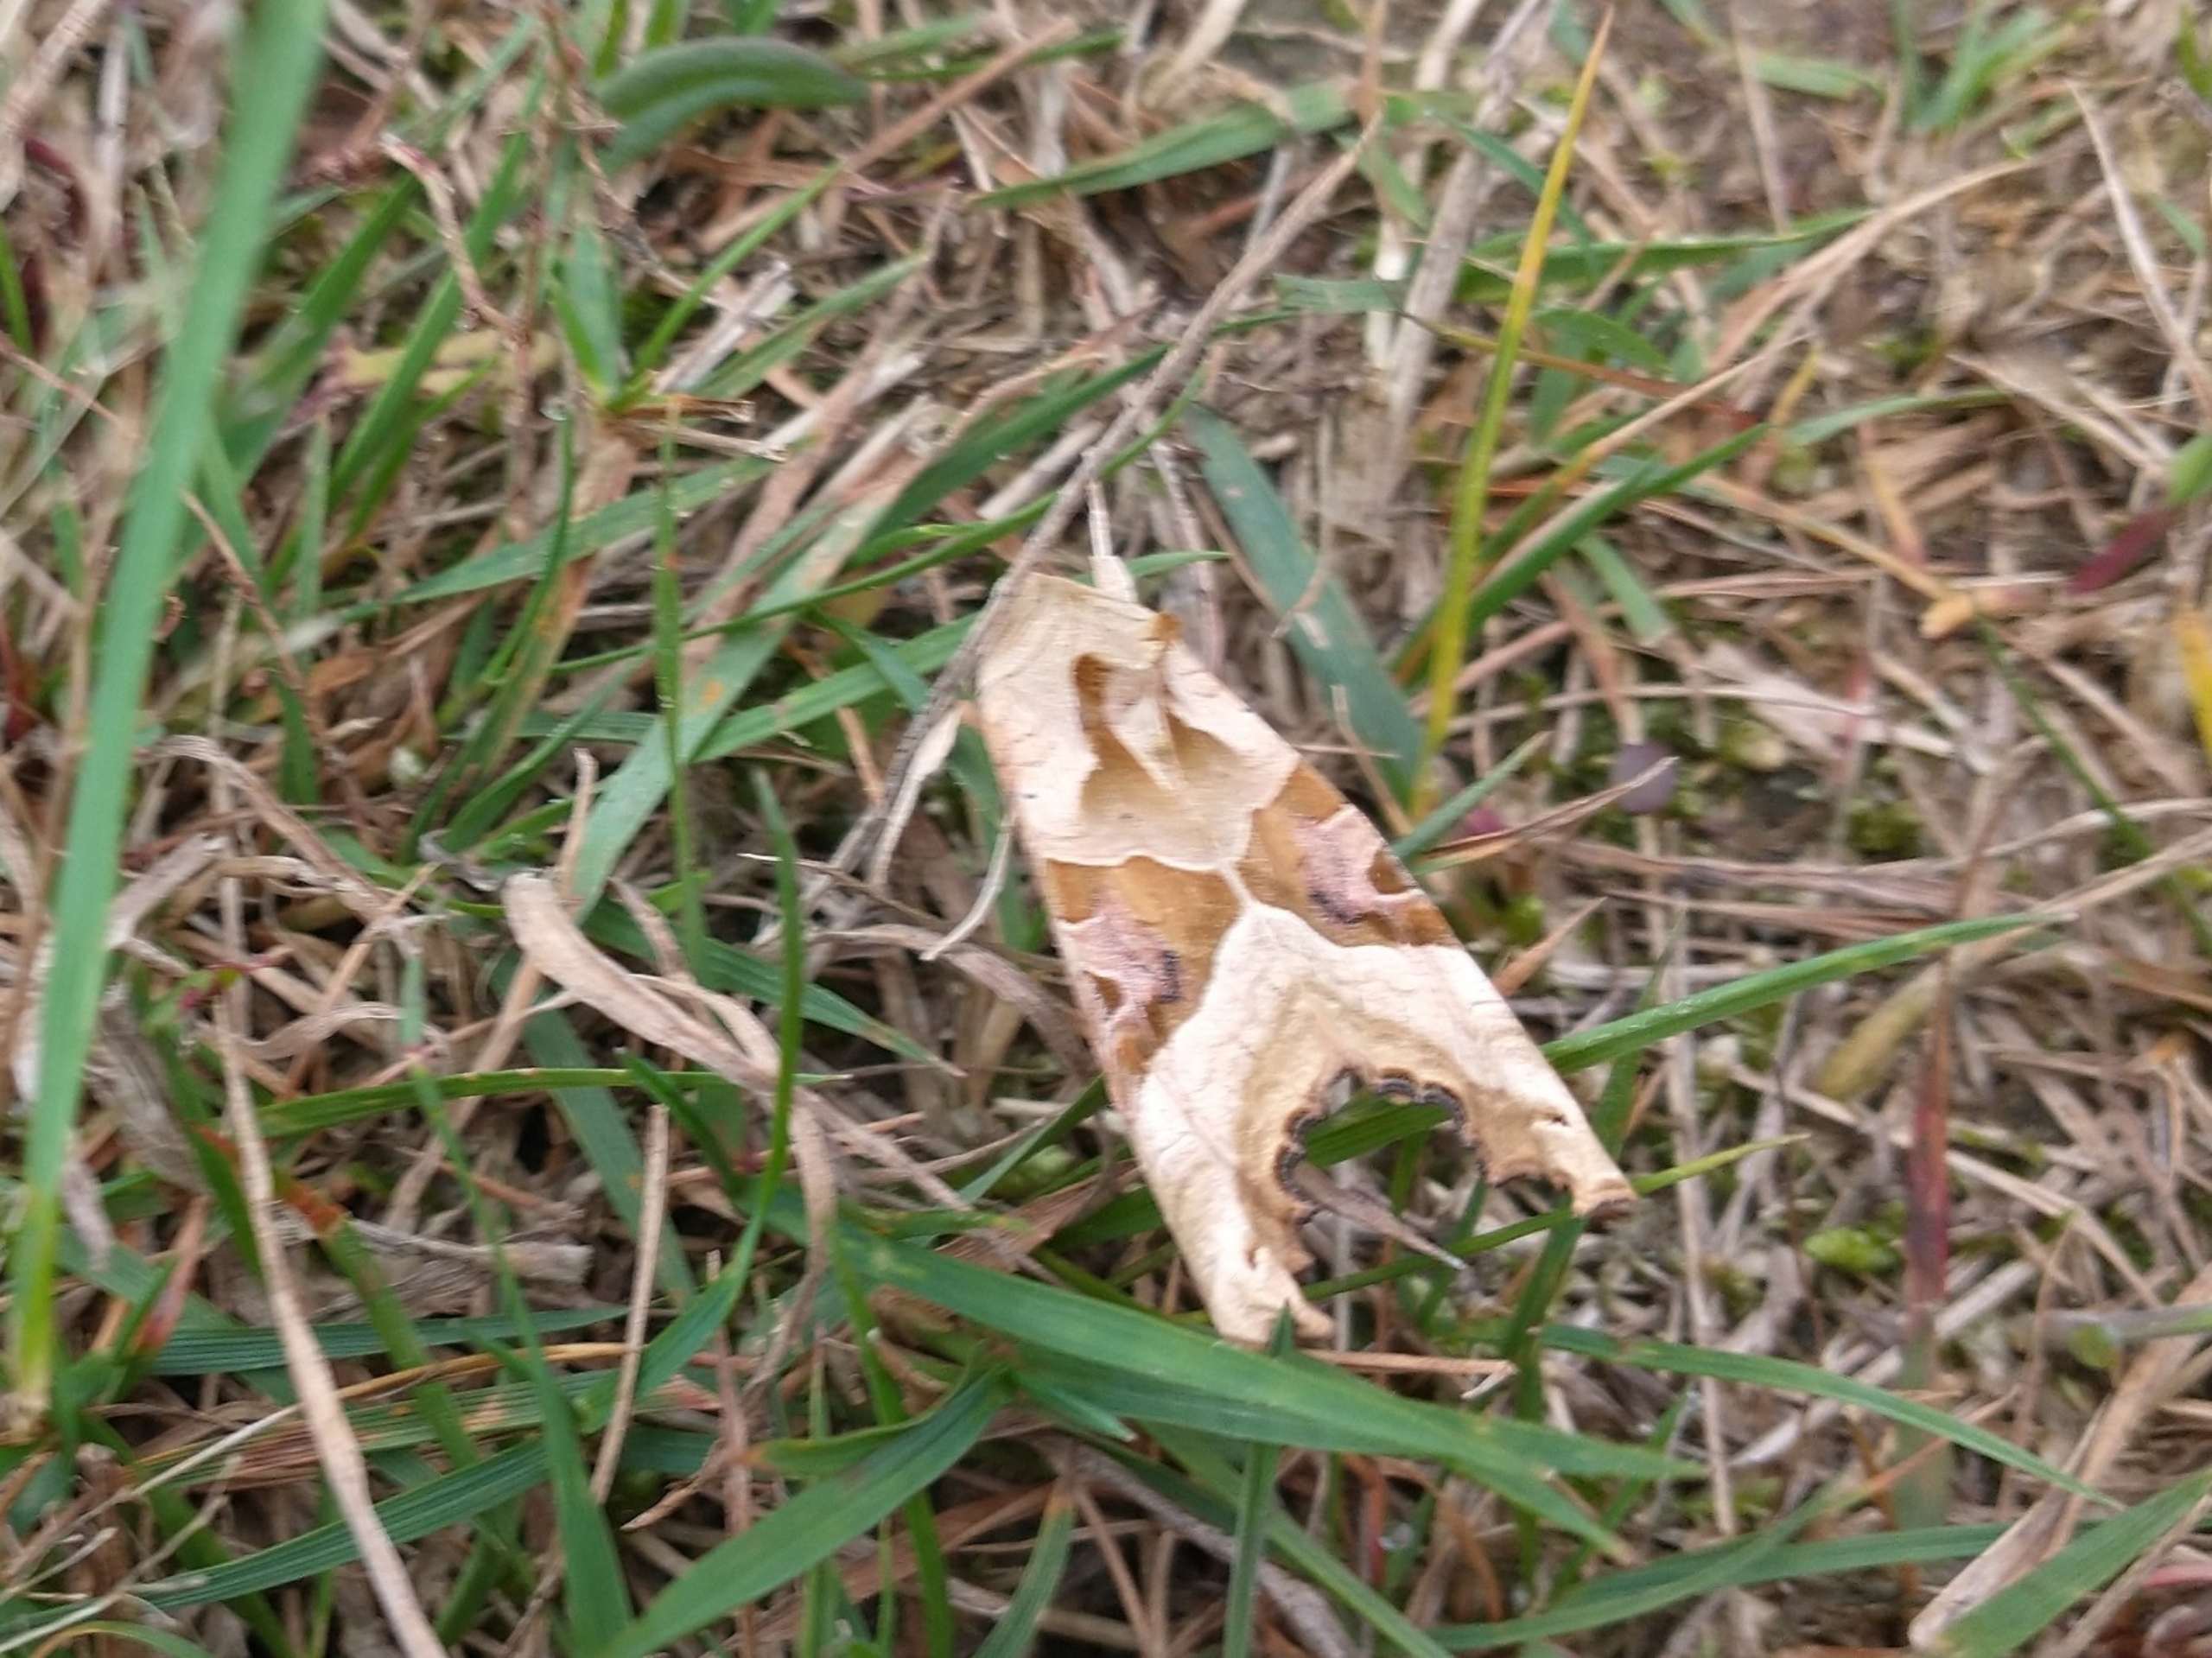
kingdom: Animalia
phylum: Arthropoda
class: Insecta
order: Lepidoptera
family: Noctuidae
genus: Phlogophora
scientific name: Phlogophora meticulosa
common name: Agatugle
